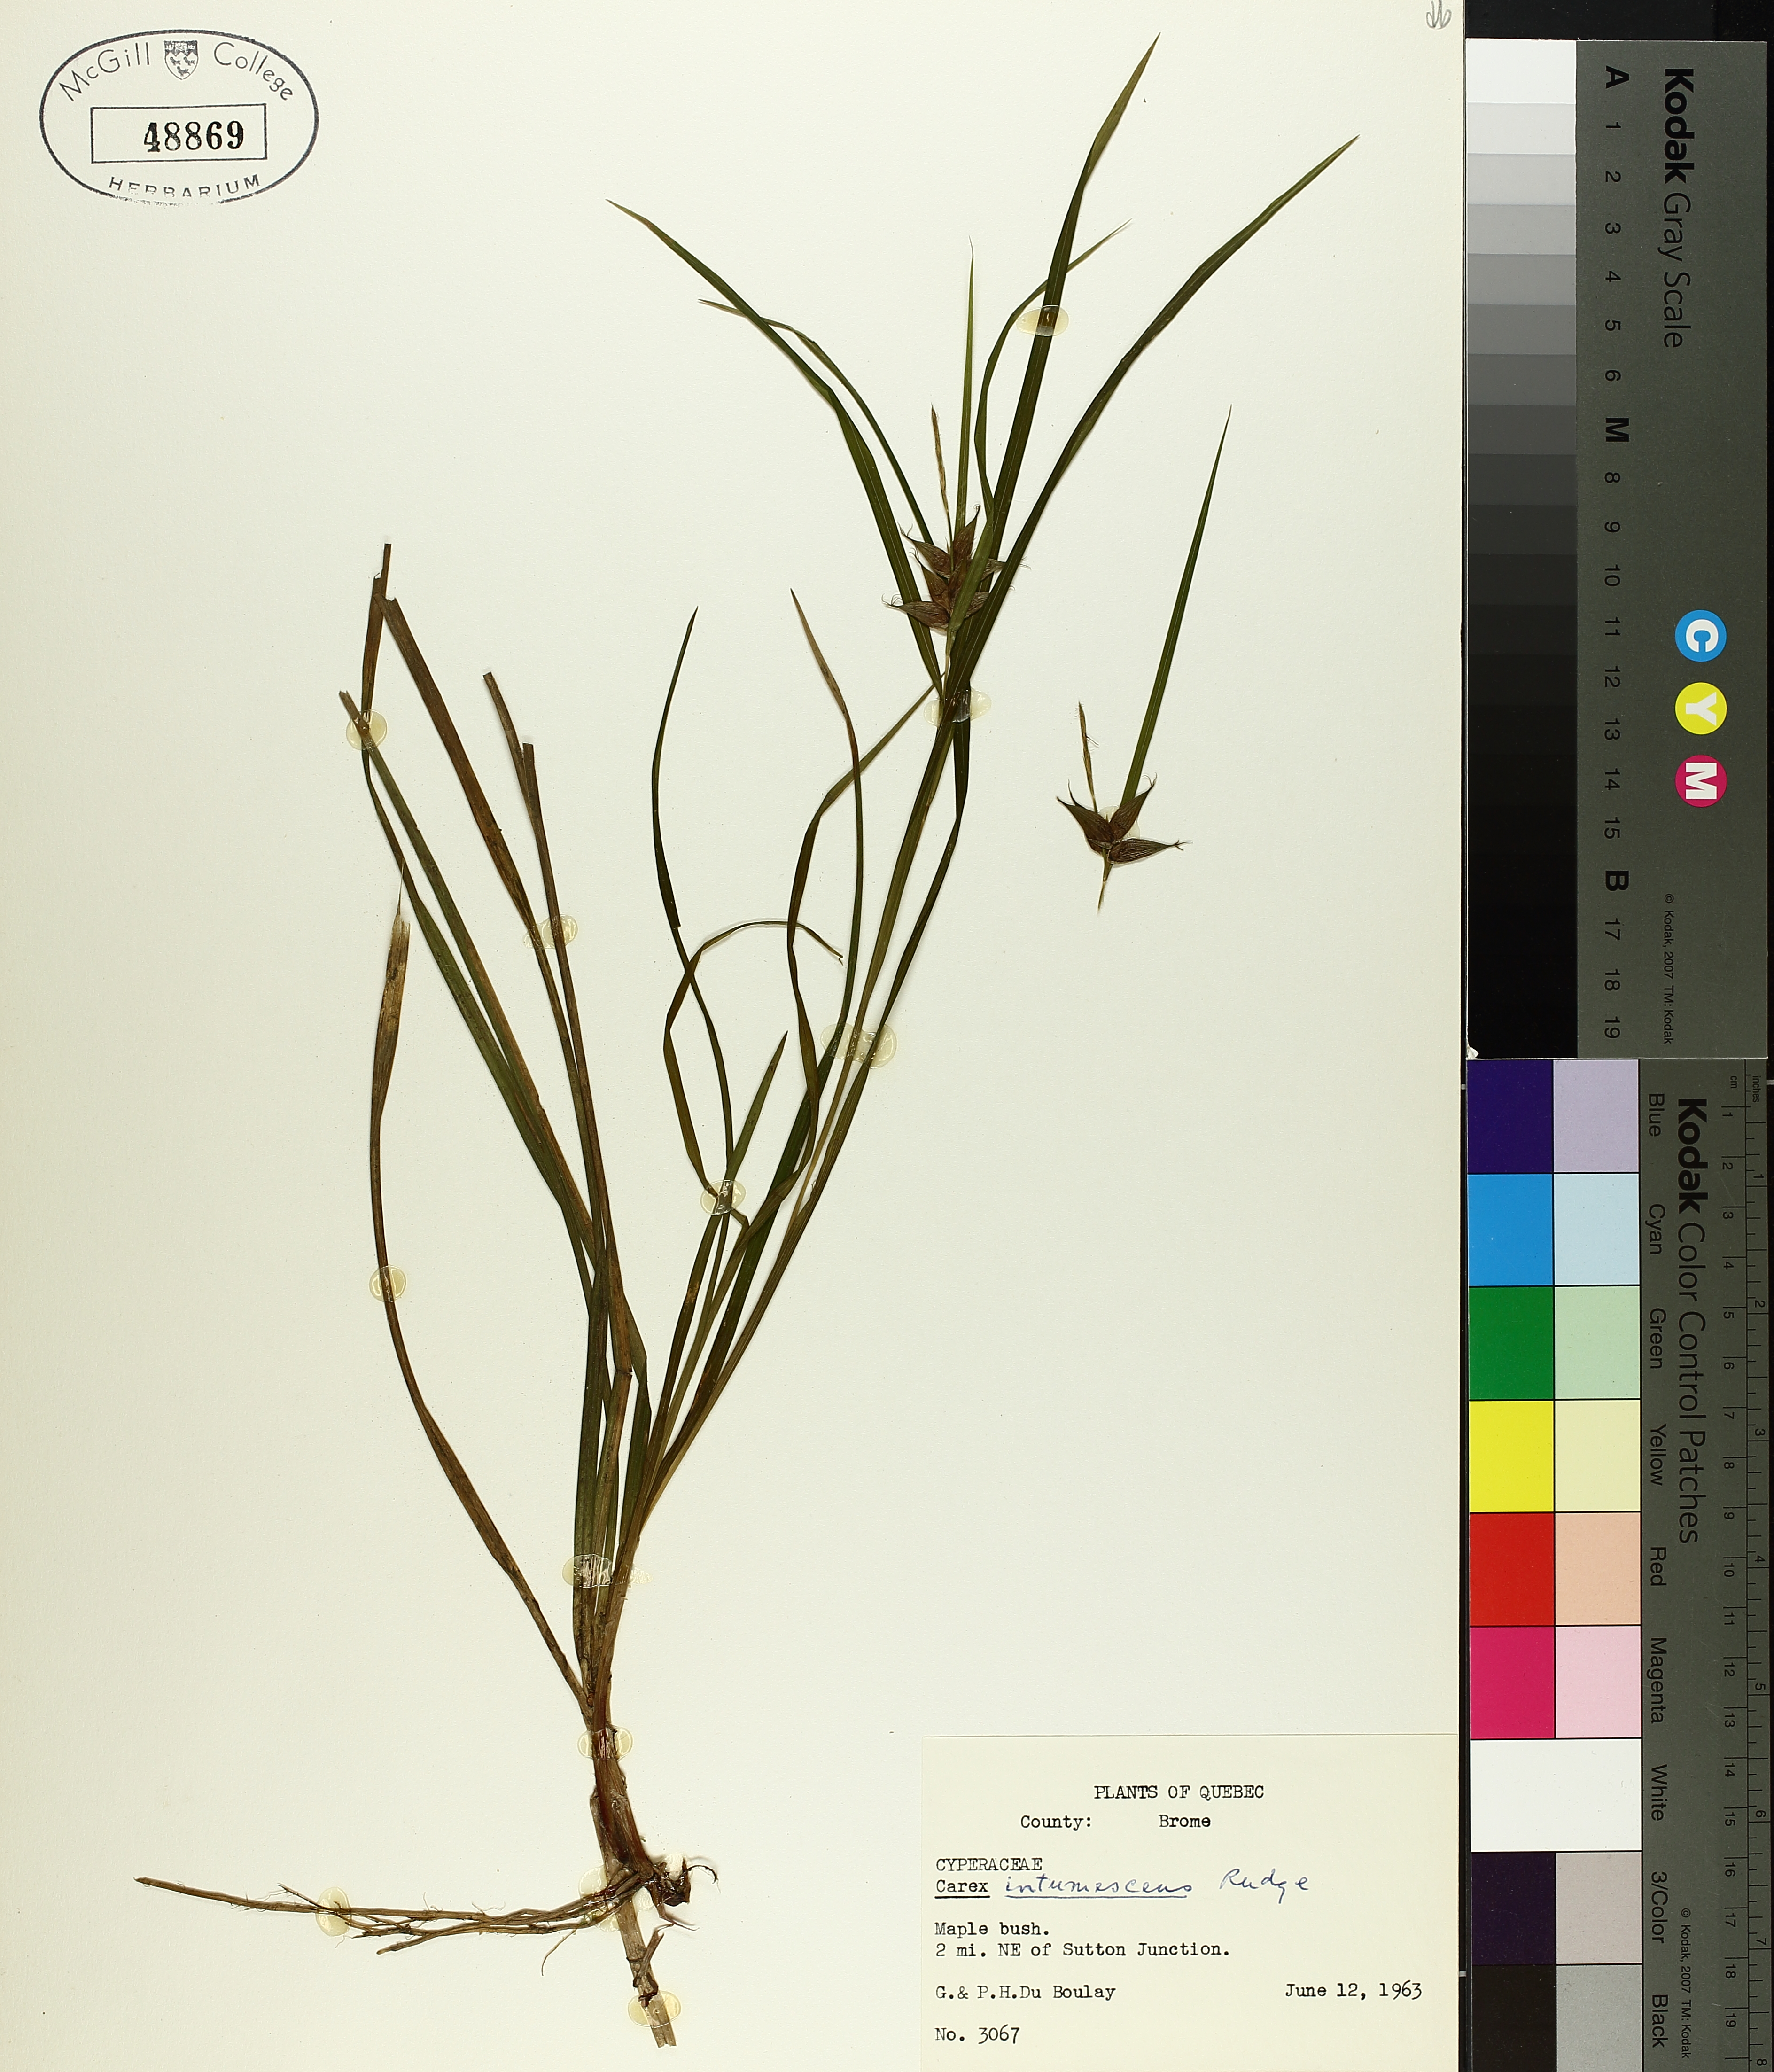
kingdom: Plantae
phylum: Tracheophyta
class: Liliopsida
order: Poales
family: Cyperaceae
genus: Carex
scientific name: Carex intumescens
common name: Greater bladder sedge
